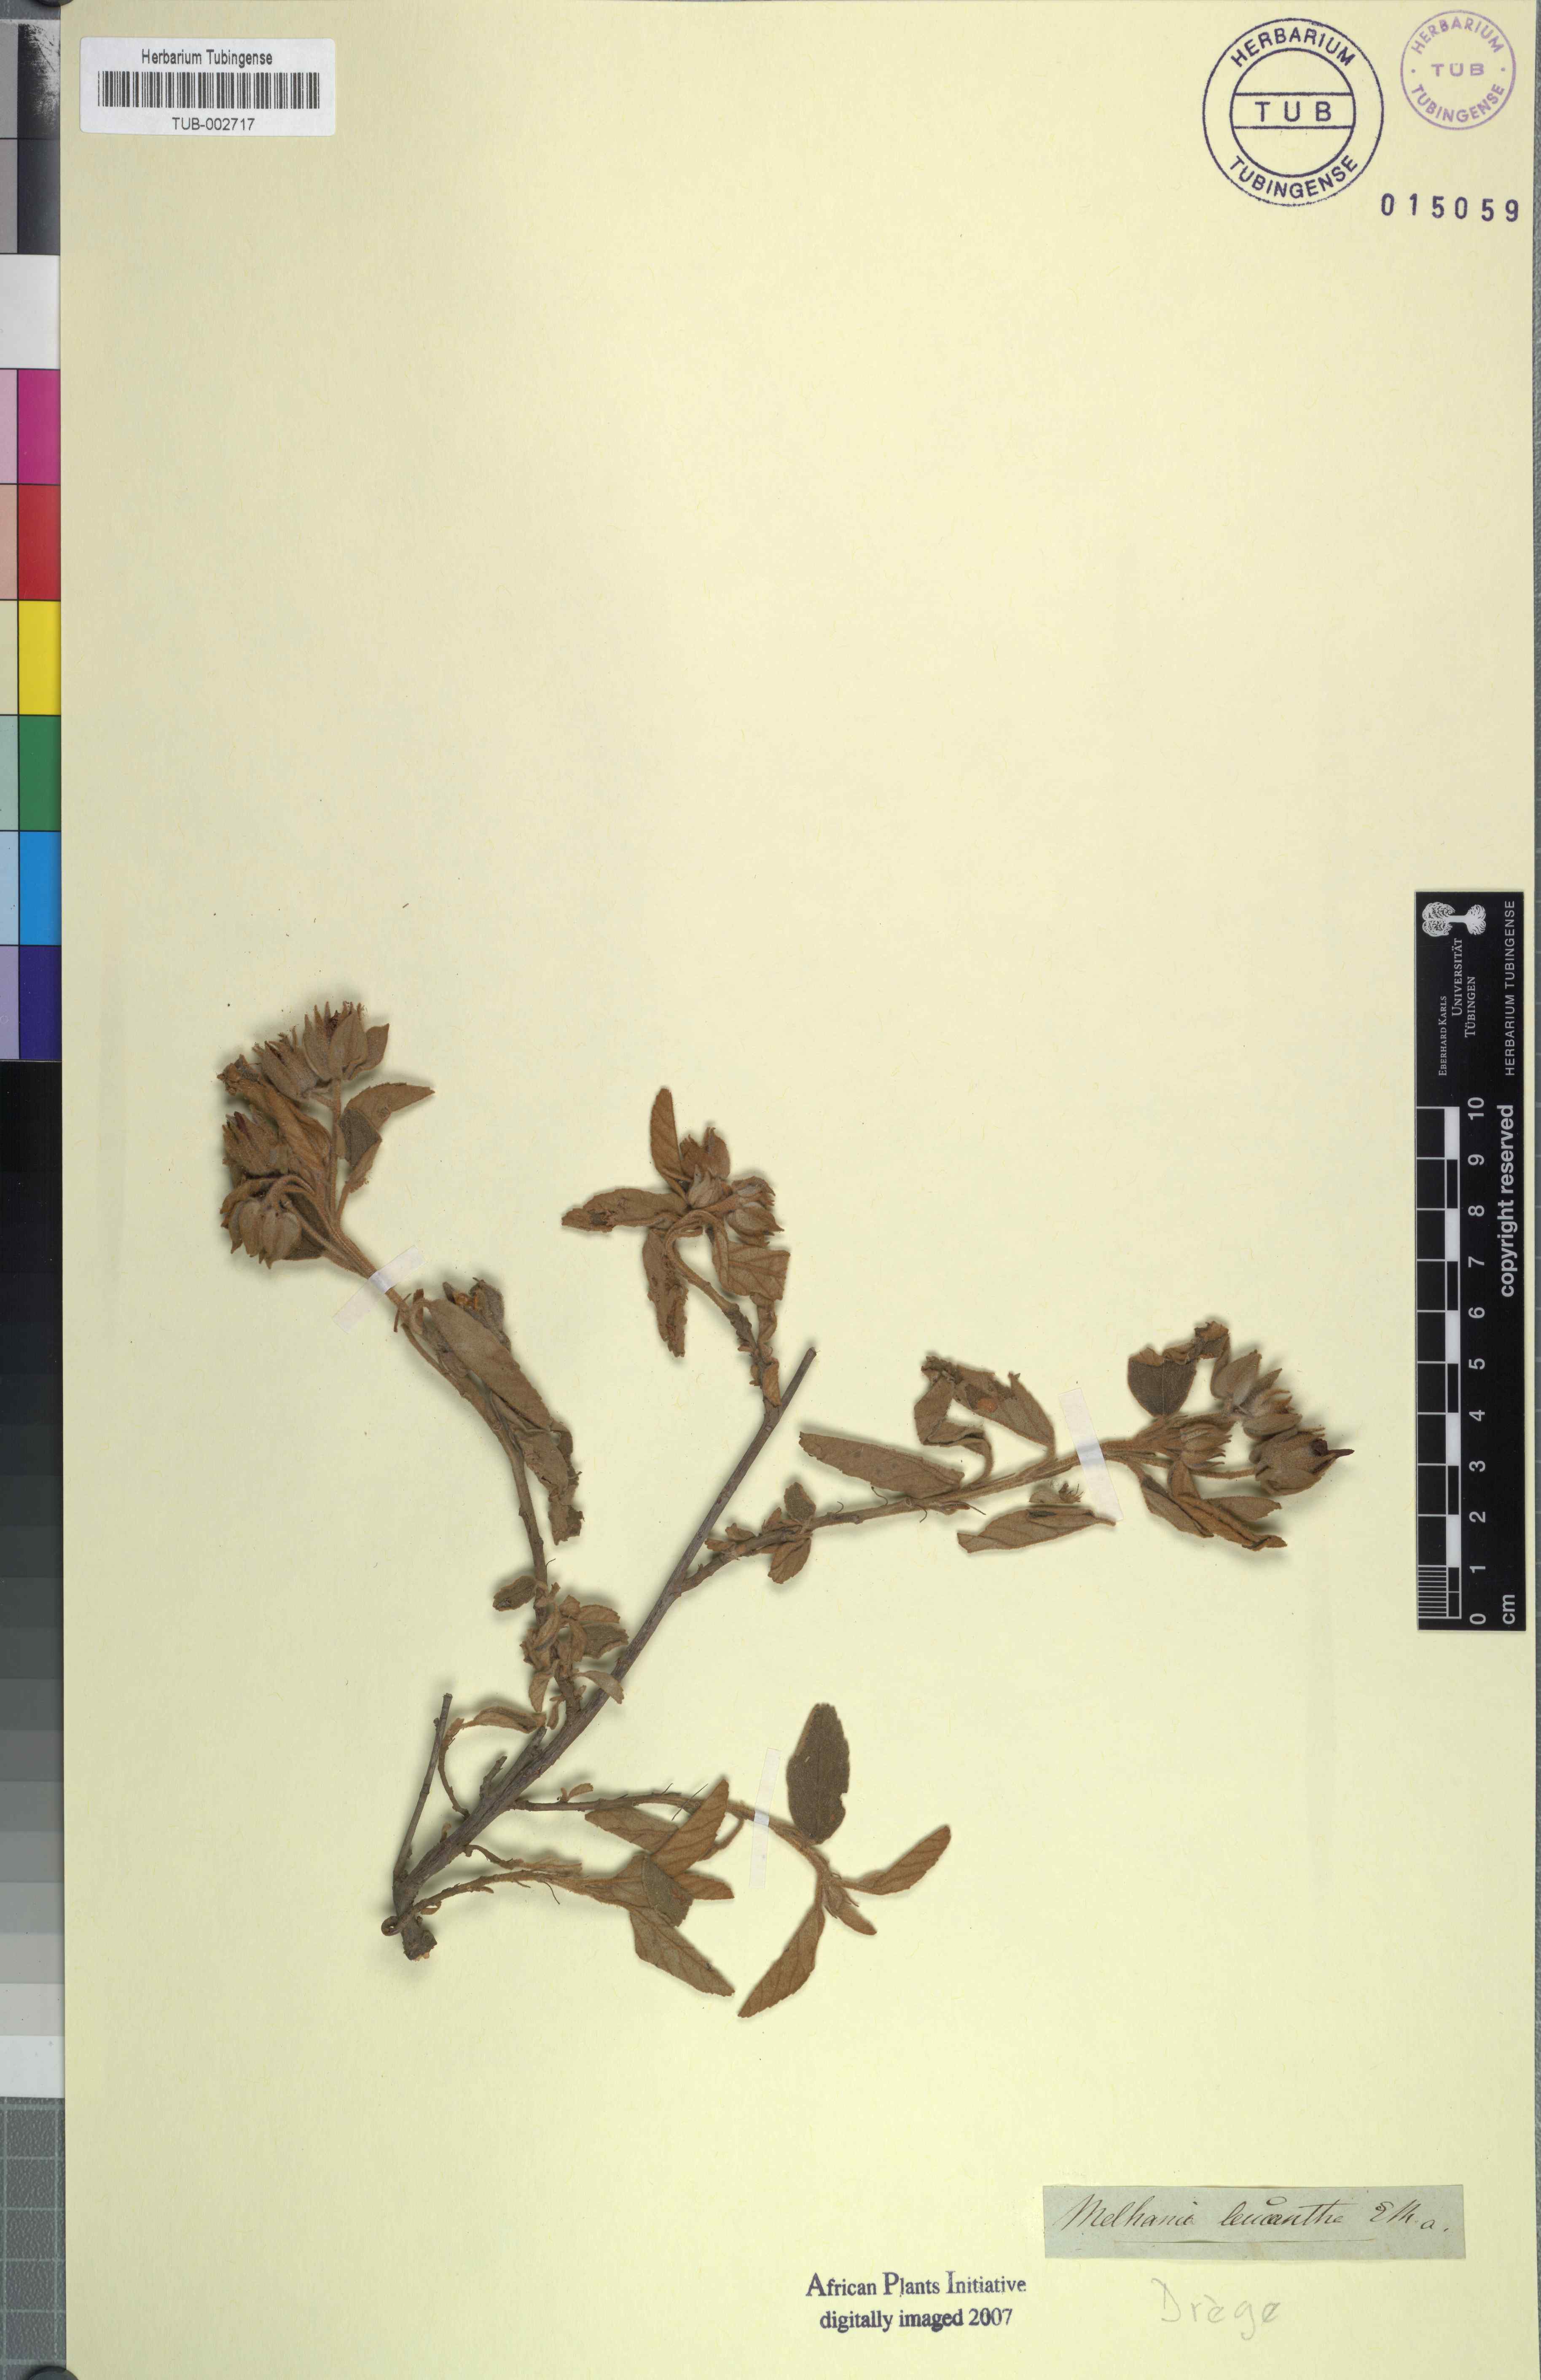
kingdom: Plantae
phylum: Tracheophyta
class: Magnoliopsida
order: Malvales
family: Malvaceae
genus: Melhania
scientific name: Melhania didyma
